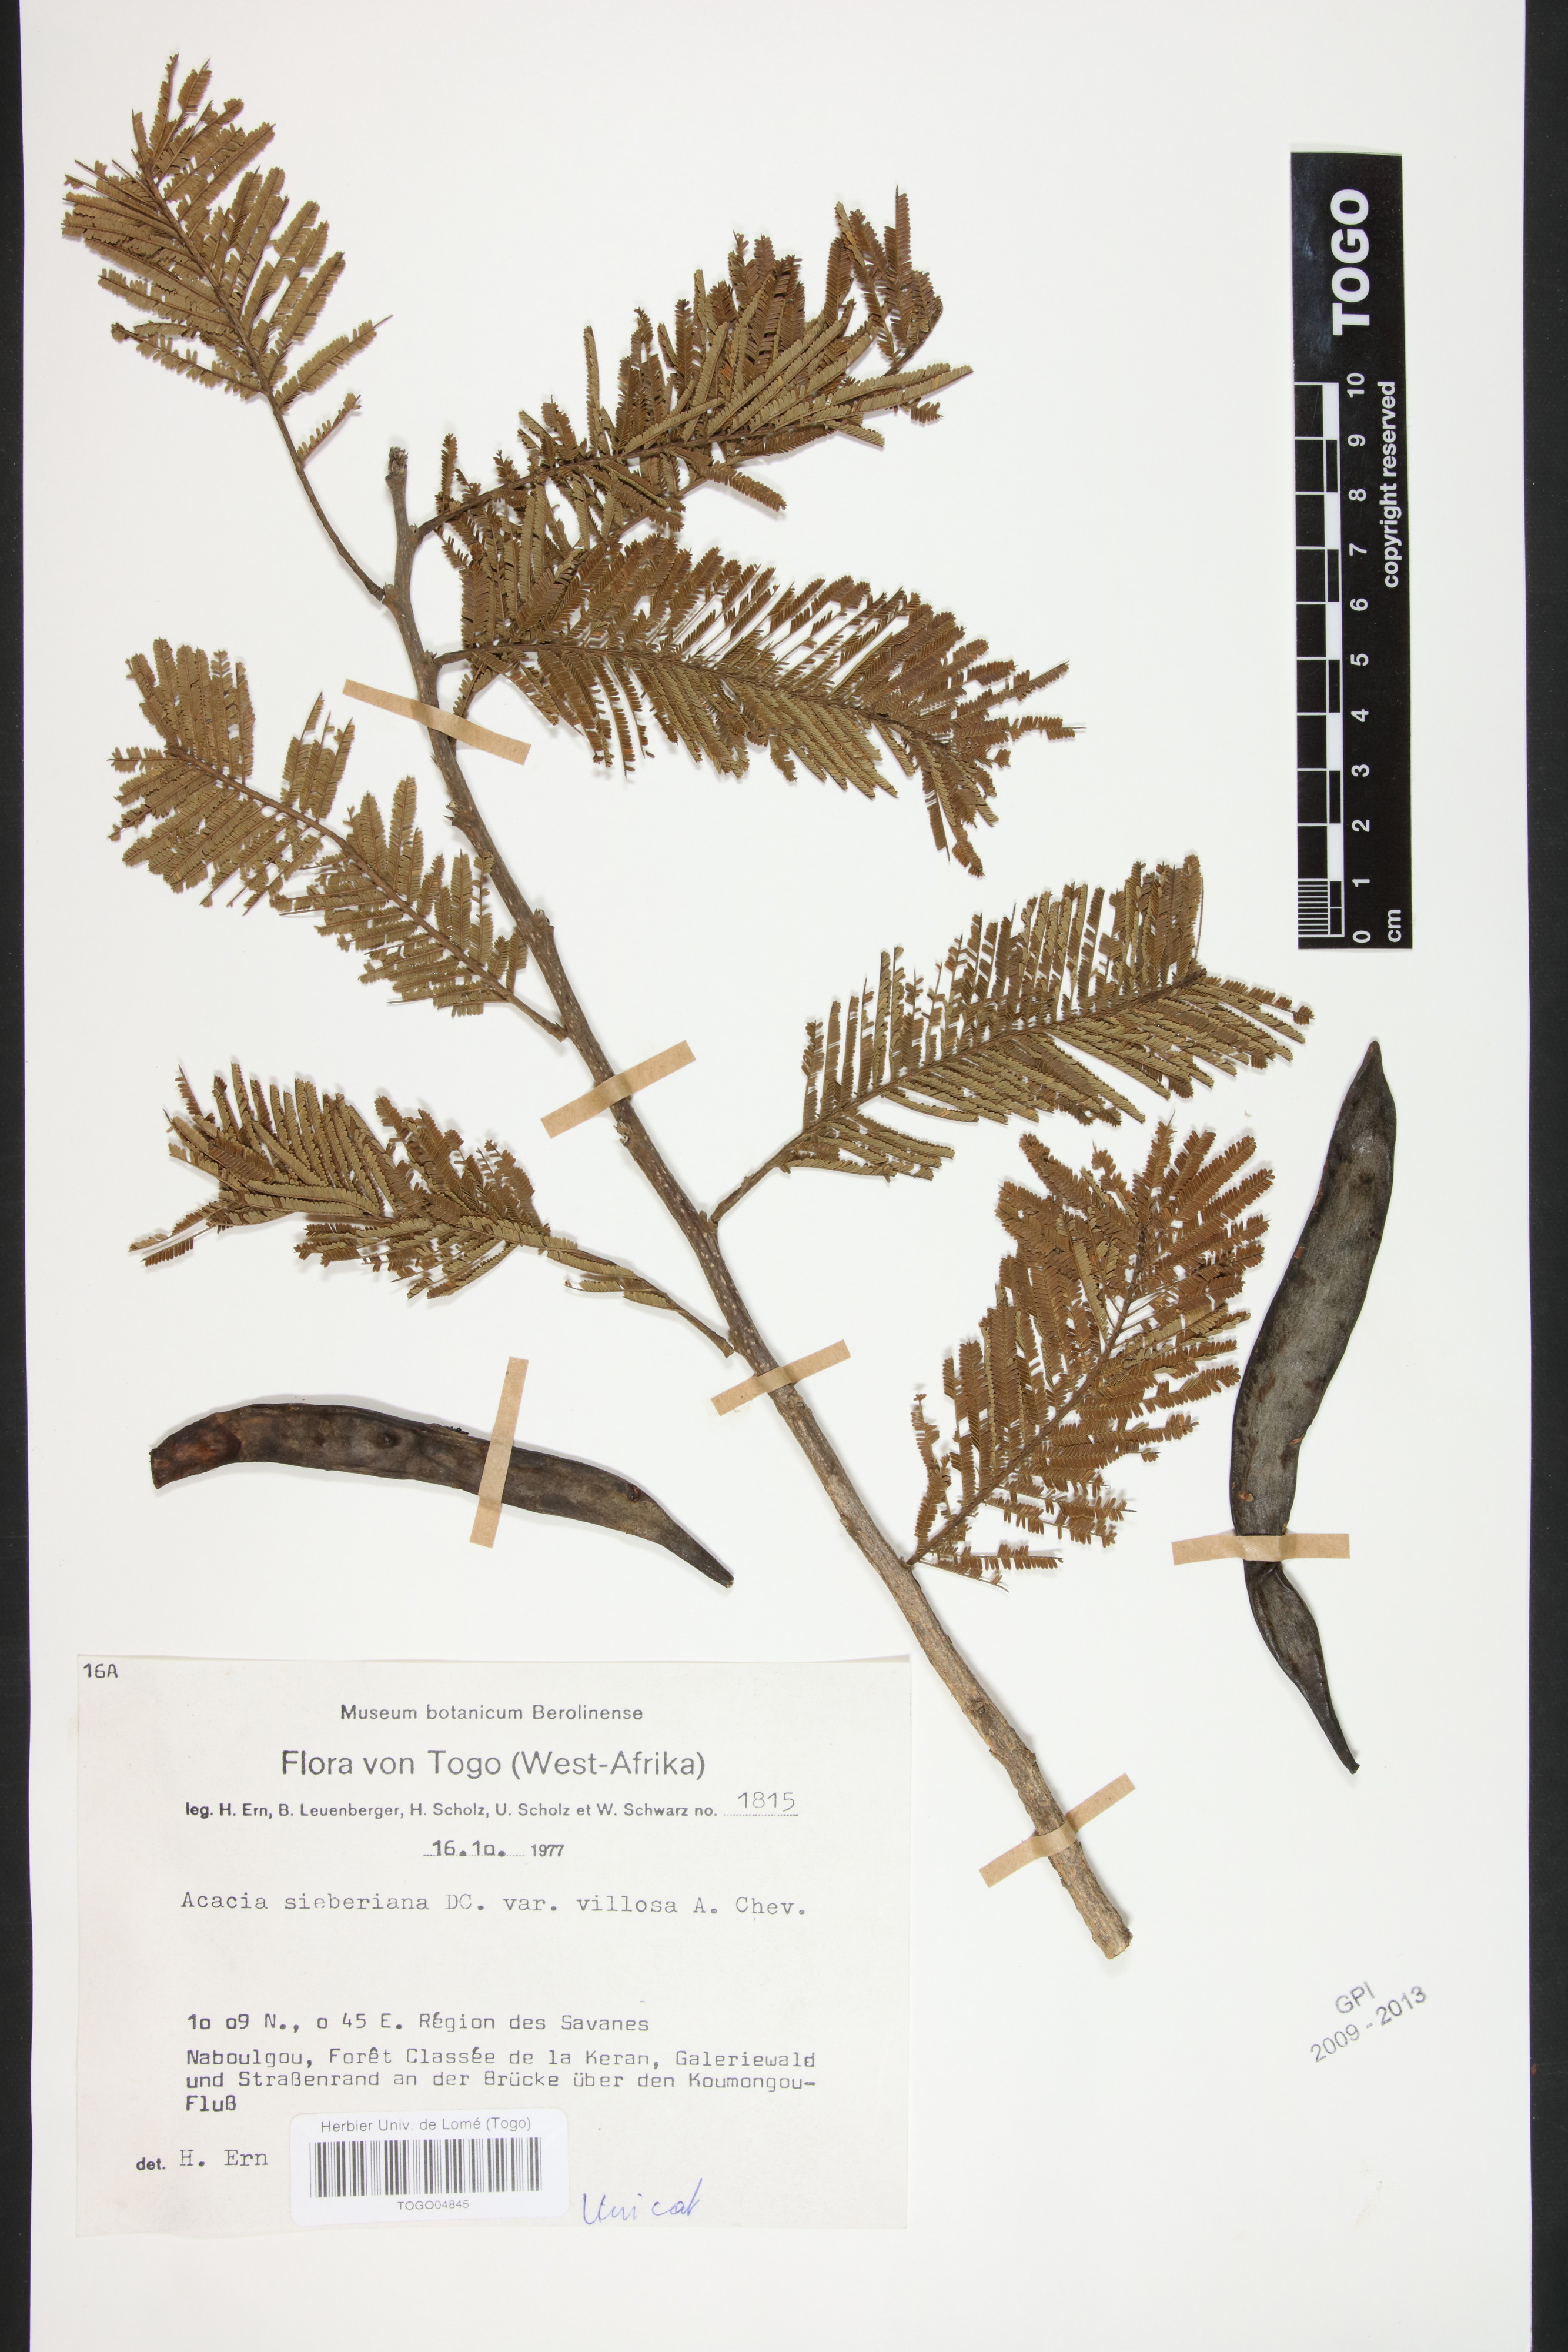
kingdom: Plantae
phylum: Tracheophyta
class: Magnoliopsida
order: Fabales
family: Fabaceae
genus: Vachellia
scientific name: Vachellia sieberiana
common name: Flat-topped thorn
